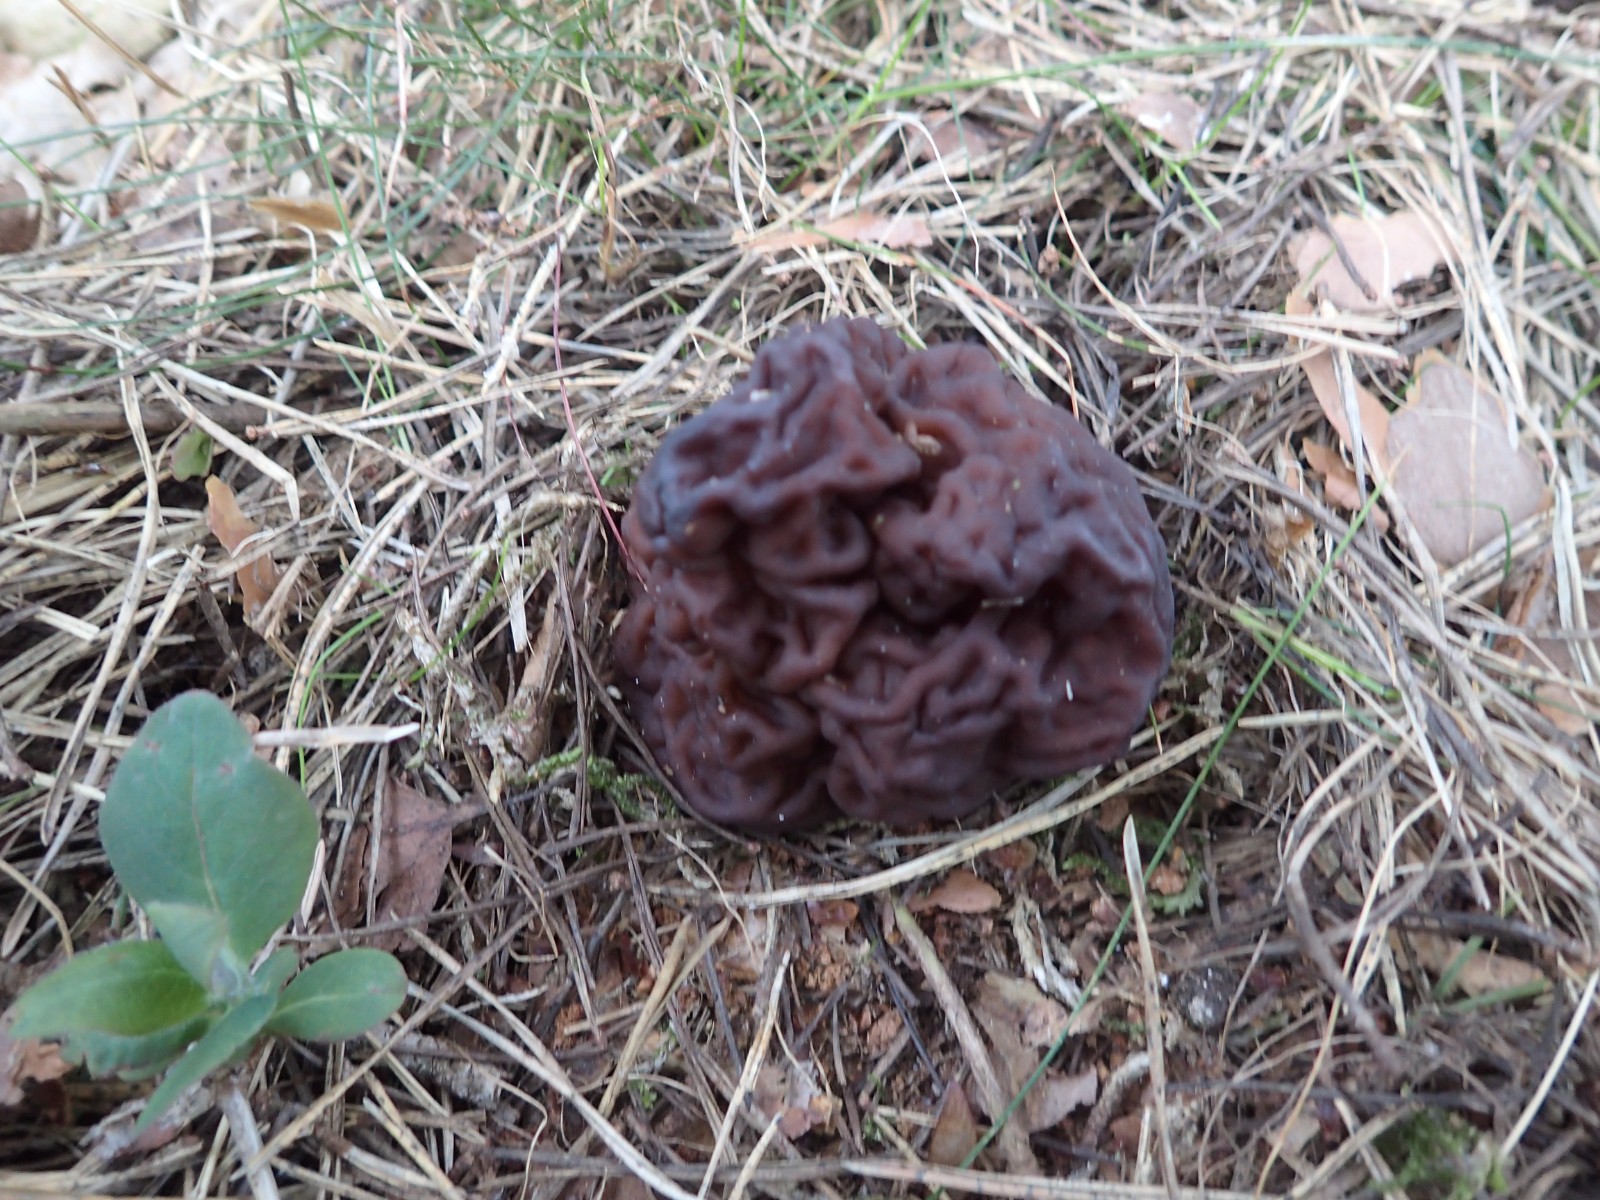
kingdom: Fungi
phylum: Ascomycota
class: Pezizomycetes
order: Pezizales
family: Discinaceae
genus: Gyromitra
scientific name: Gyromitra esculenta
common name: ægte stenmorkel
